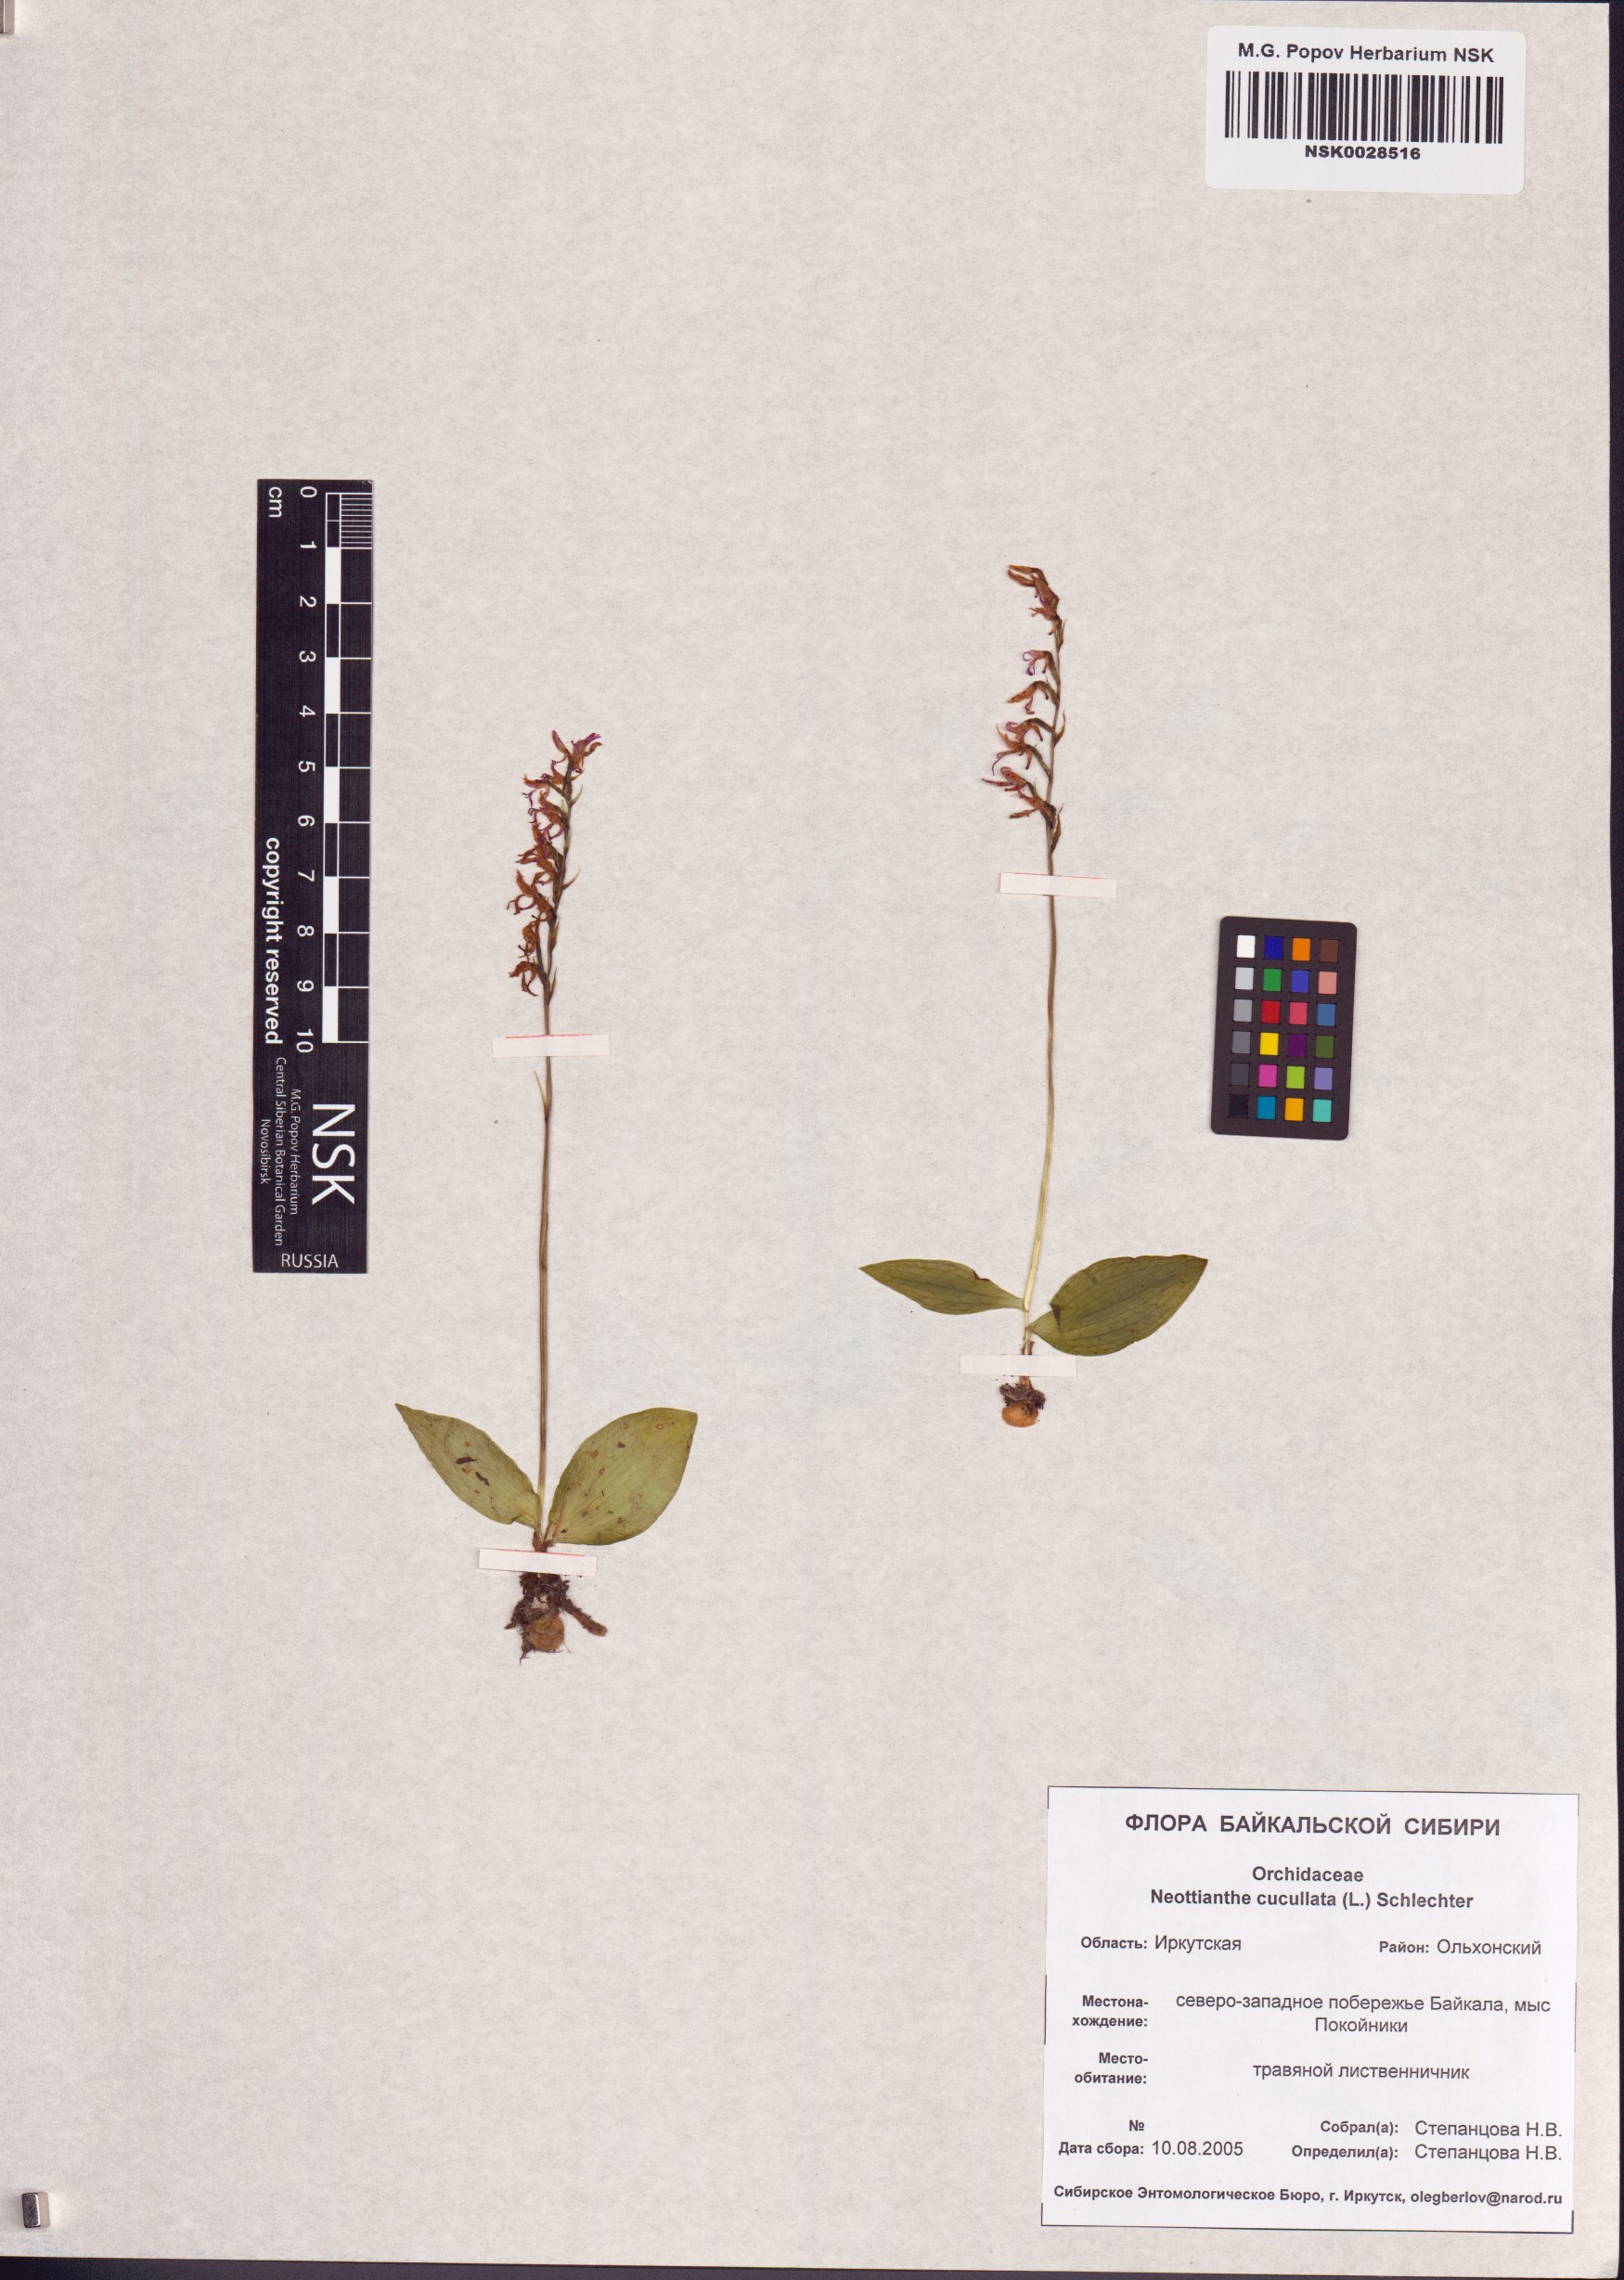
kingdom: Plantae
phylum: Tracheophyta
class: Liliopsida
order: Asparagales
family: Orchidaceae
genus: Hemipilia
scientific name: Hemipilia cucullata
